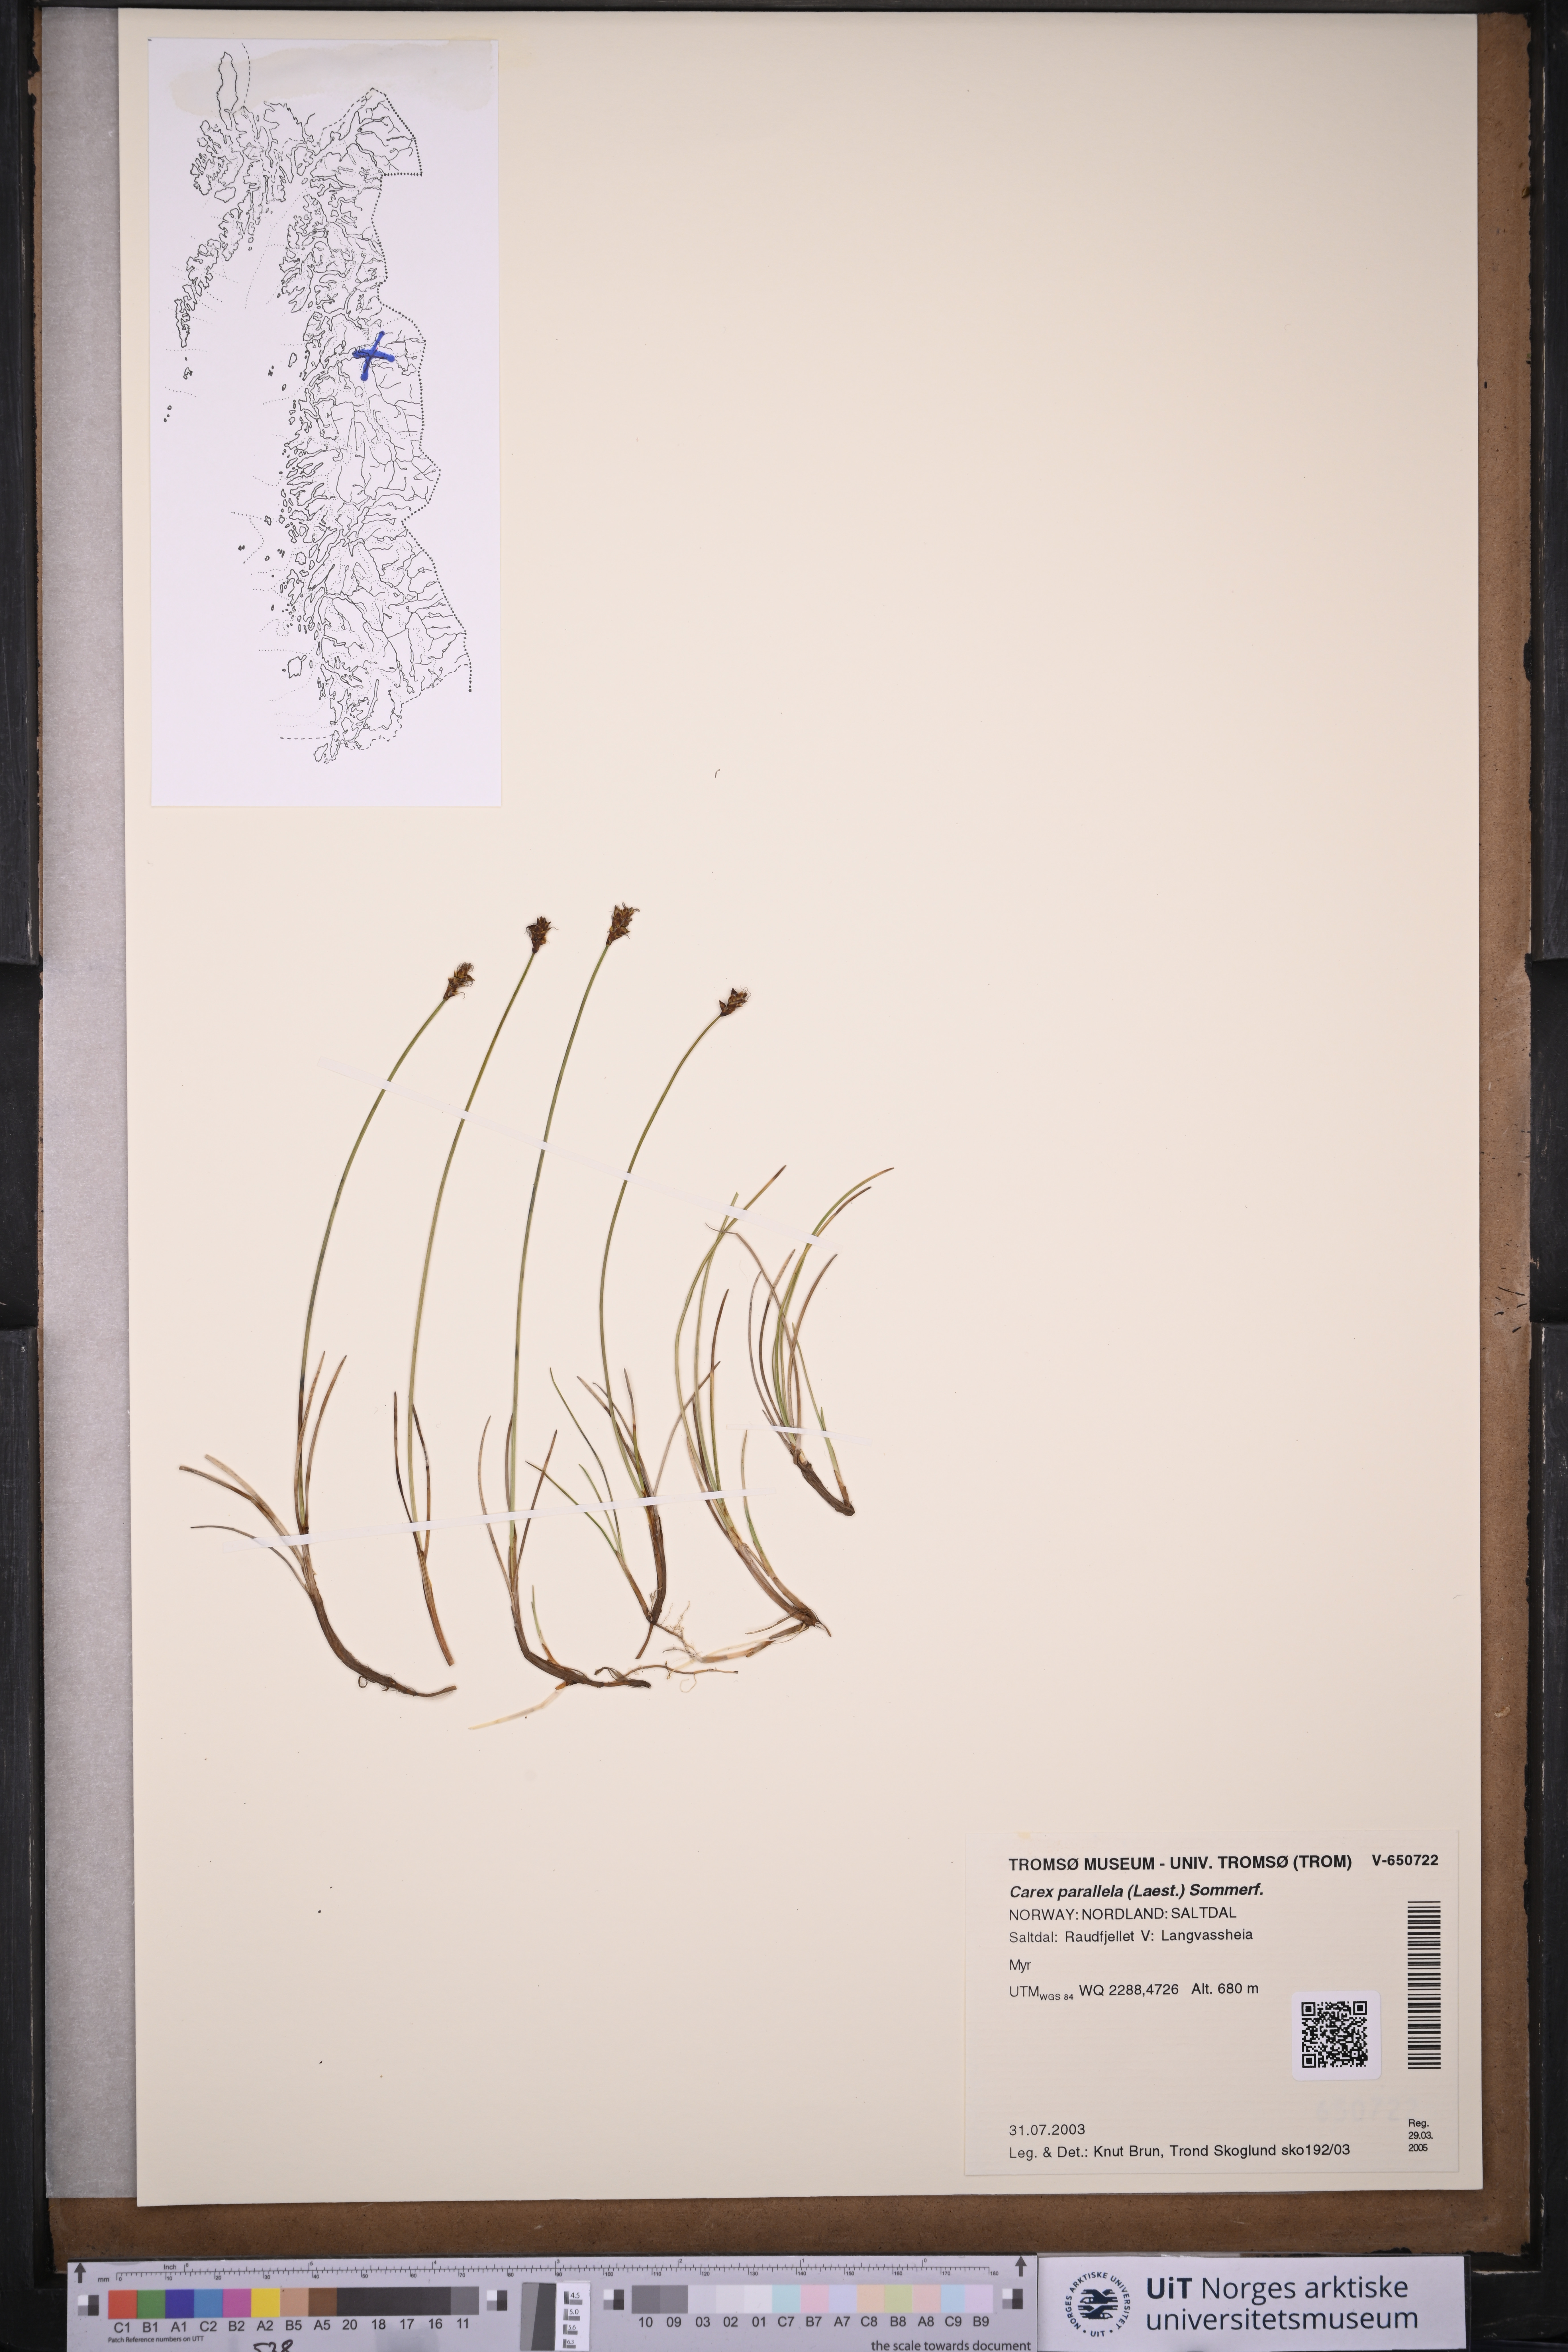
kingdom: Plantae
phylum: Tracheophyta
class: Liliopsida
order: Poales
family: Cyperaceae
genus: Carex
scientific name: Carex parallela
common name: Parallel sedge
